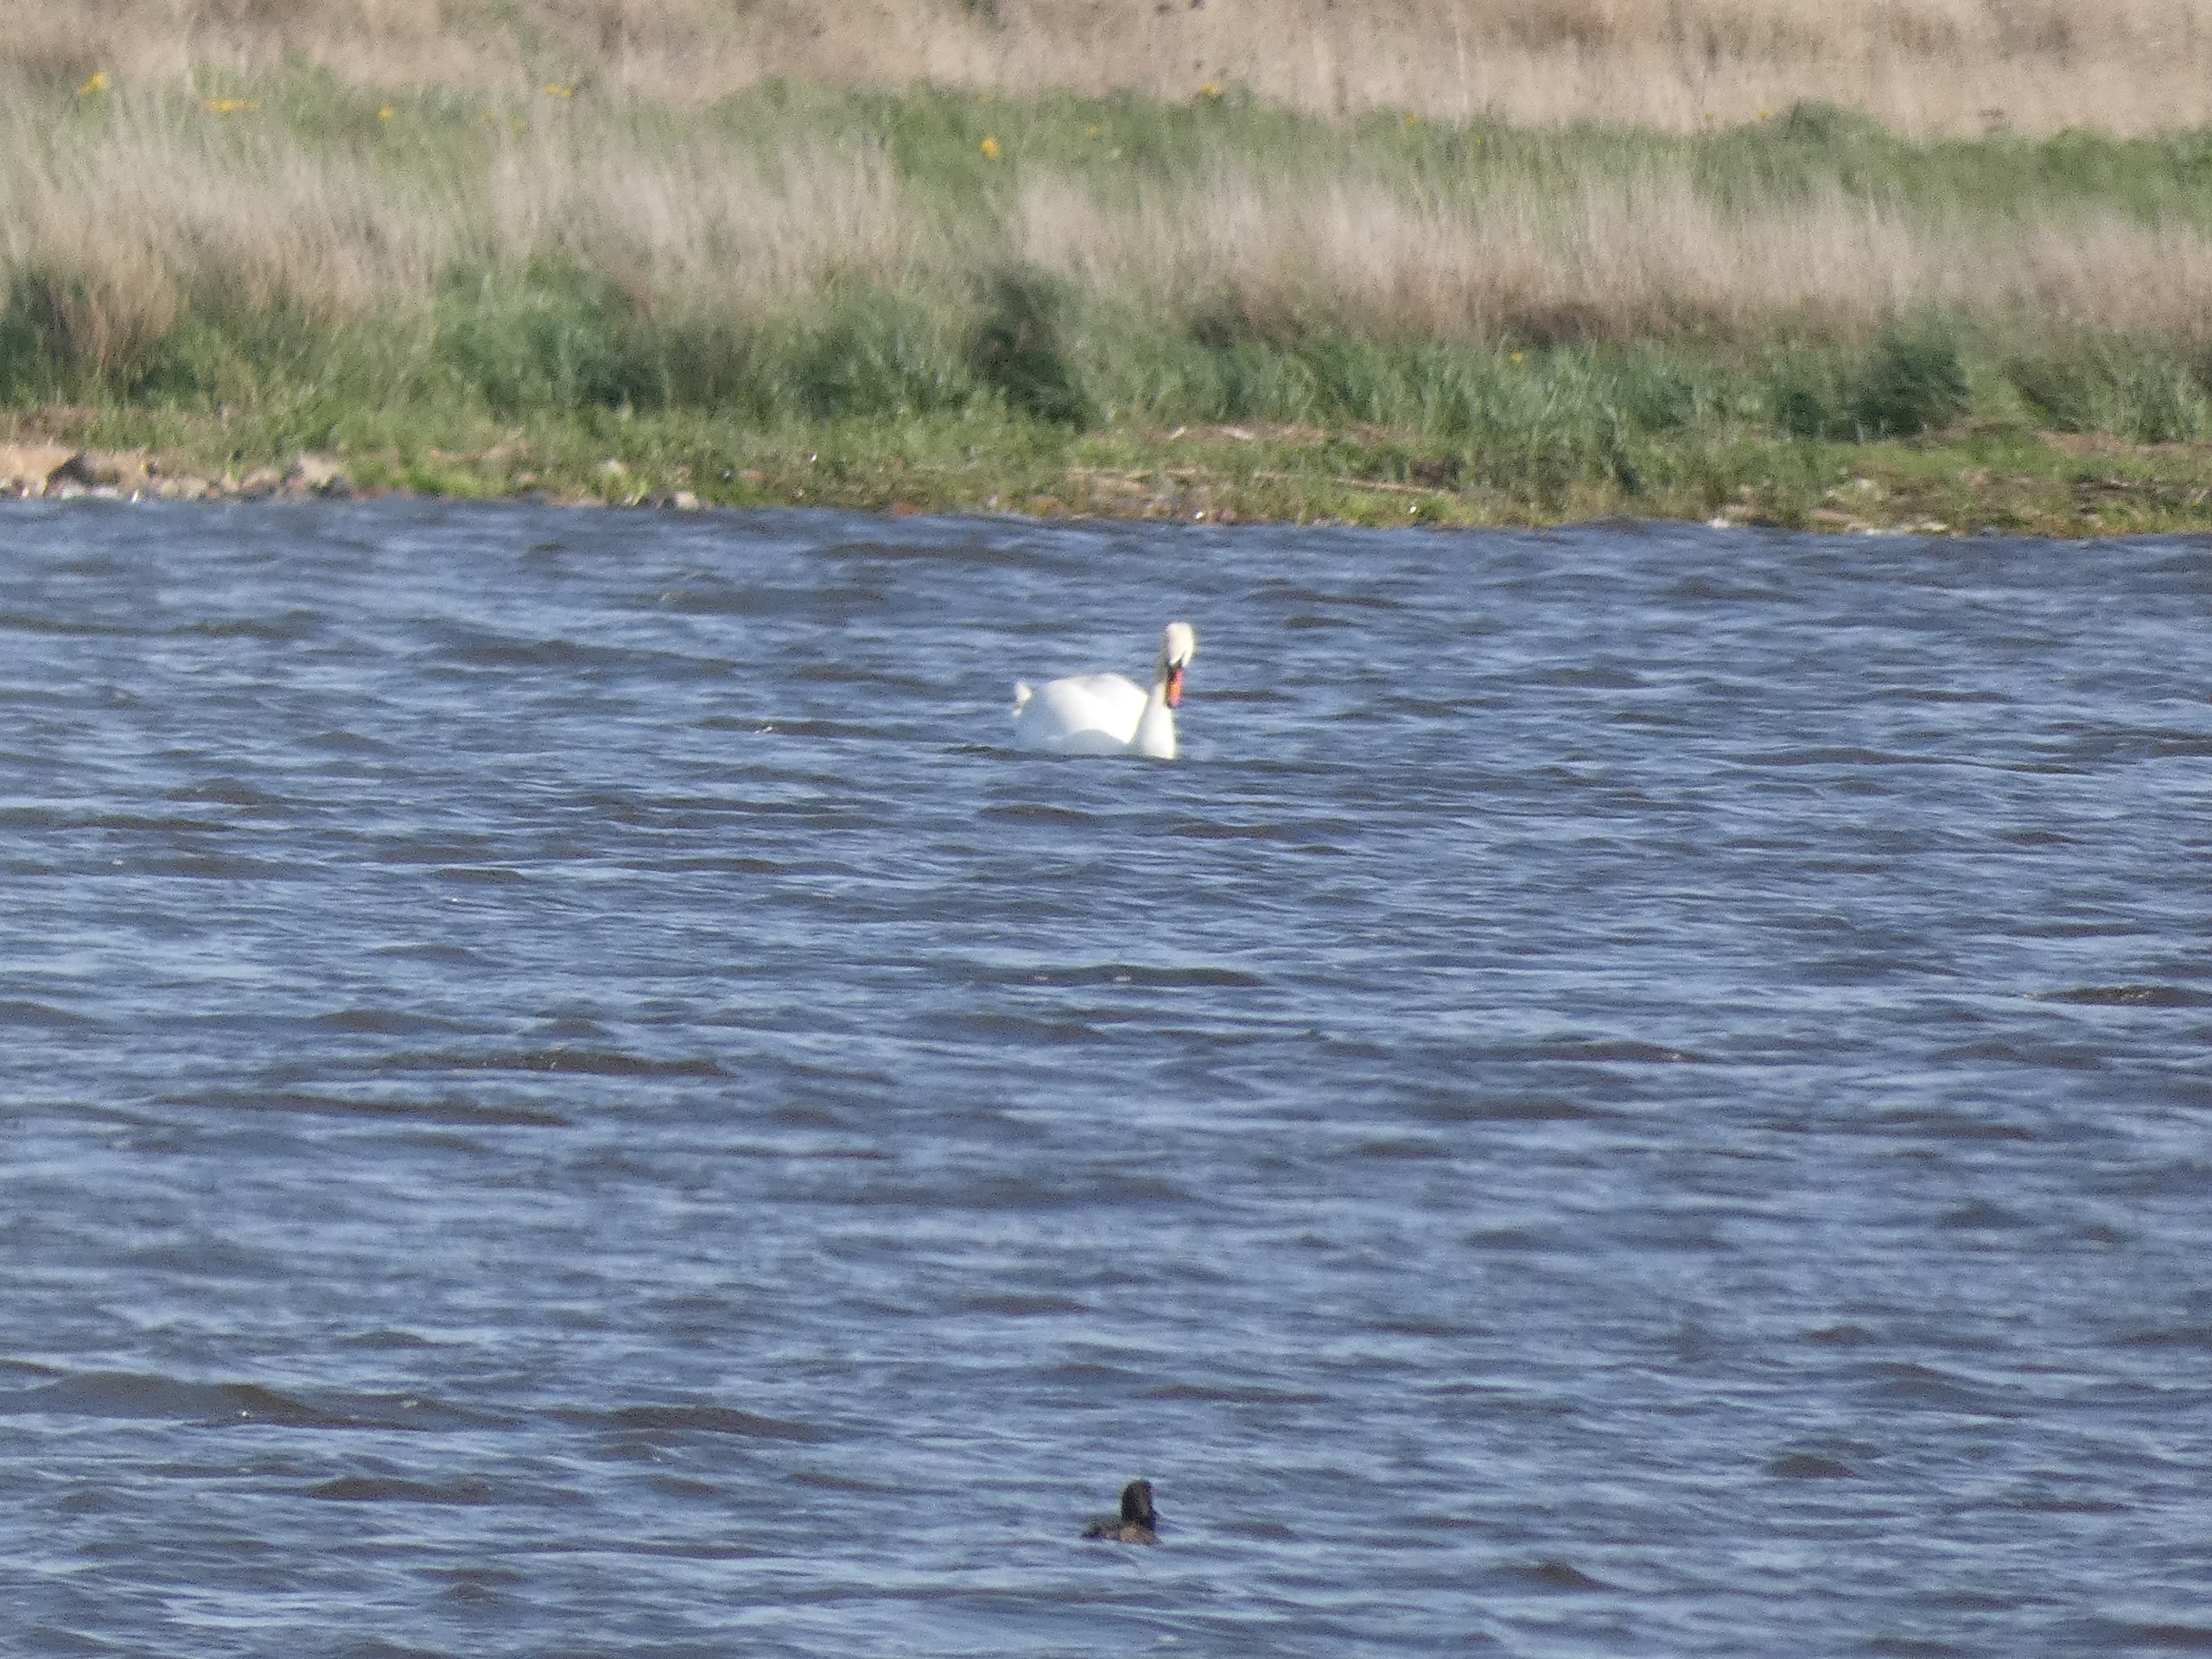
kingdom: Animalia
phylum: Chordata
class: Aves
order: Anseriformes
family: Anatidae
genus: Cygnus
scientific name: Cygnus olor
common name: Knopsvane
